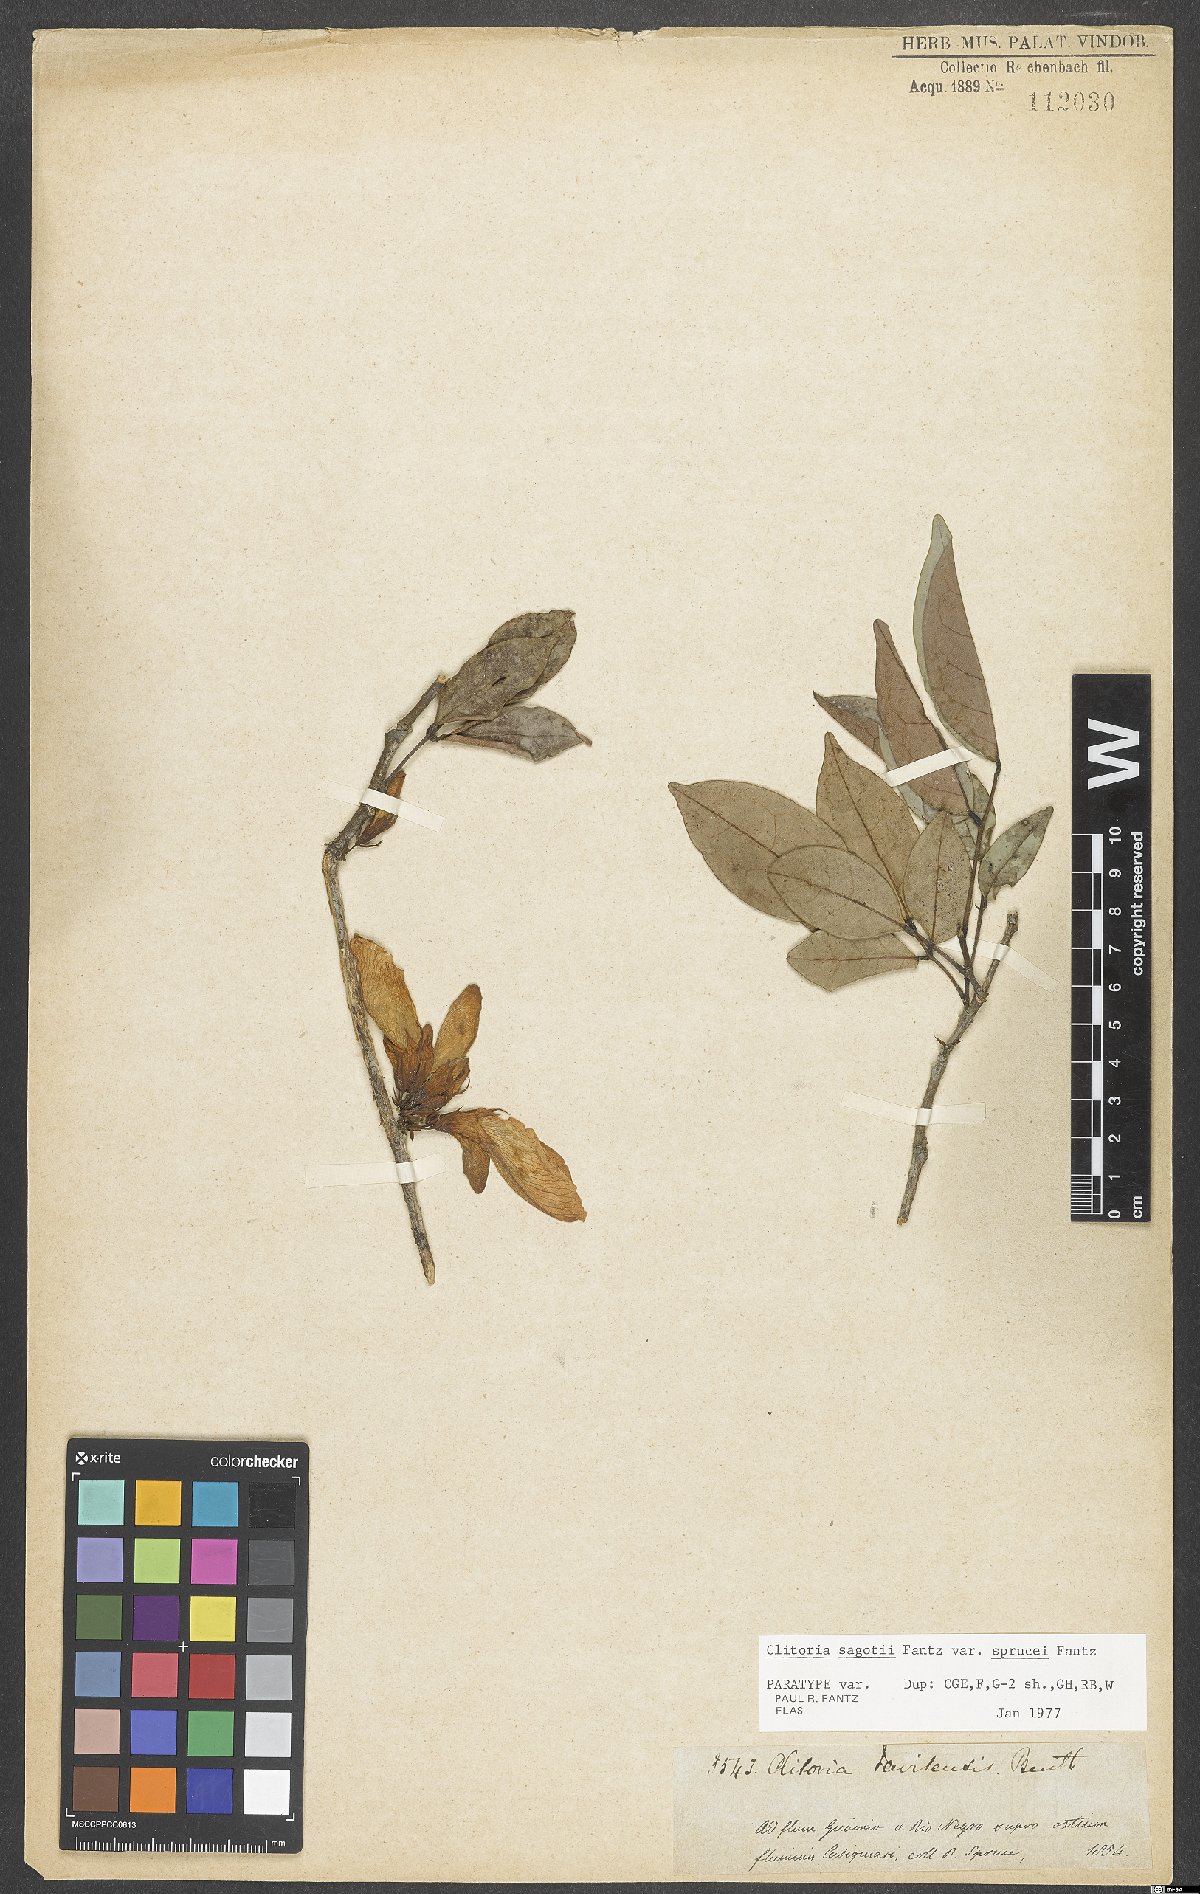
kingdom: Plantae
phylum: Tracheophyta
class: Magnoliopsida
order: Fabales
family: Fabaceae
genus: Clitoria
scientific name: Clitoria sagotii
